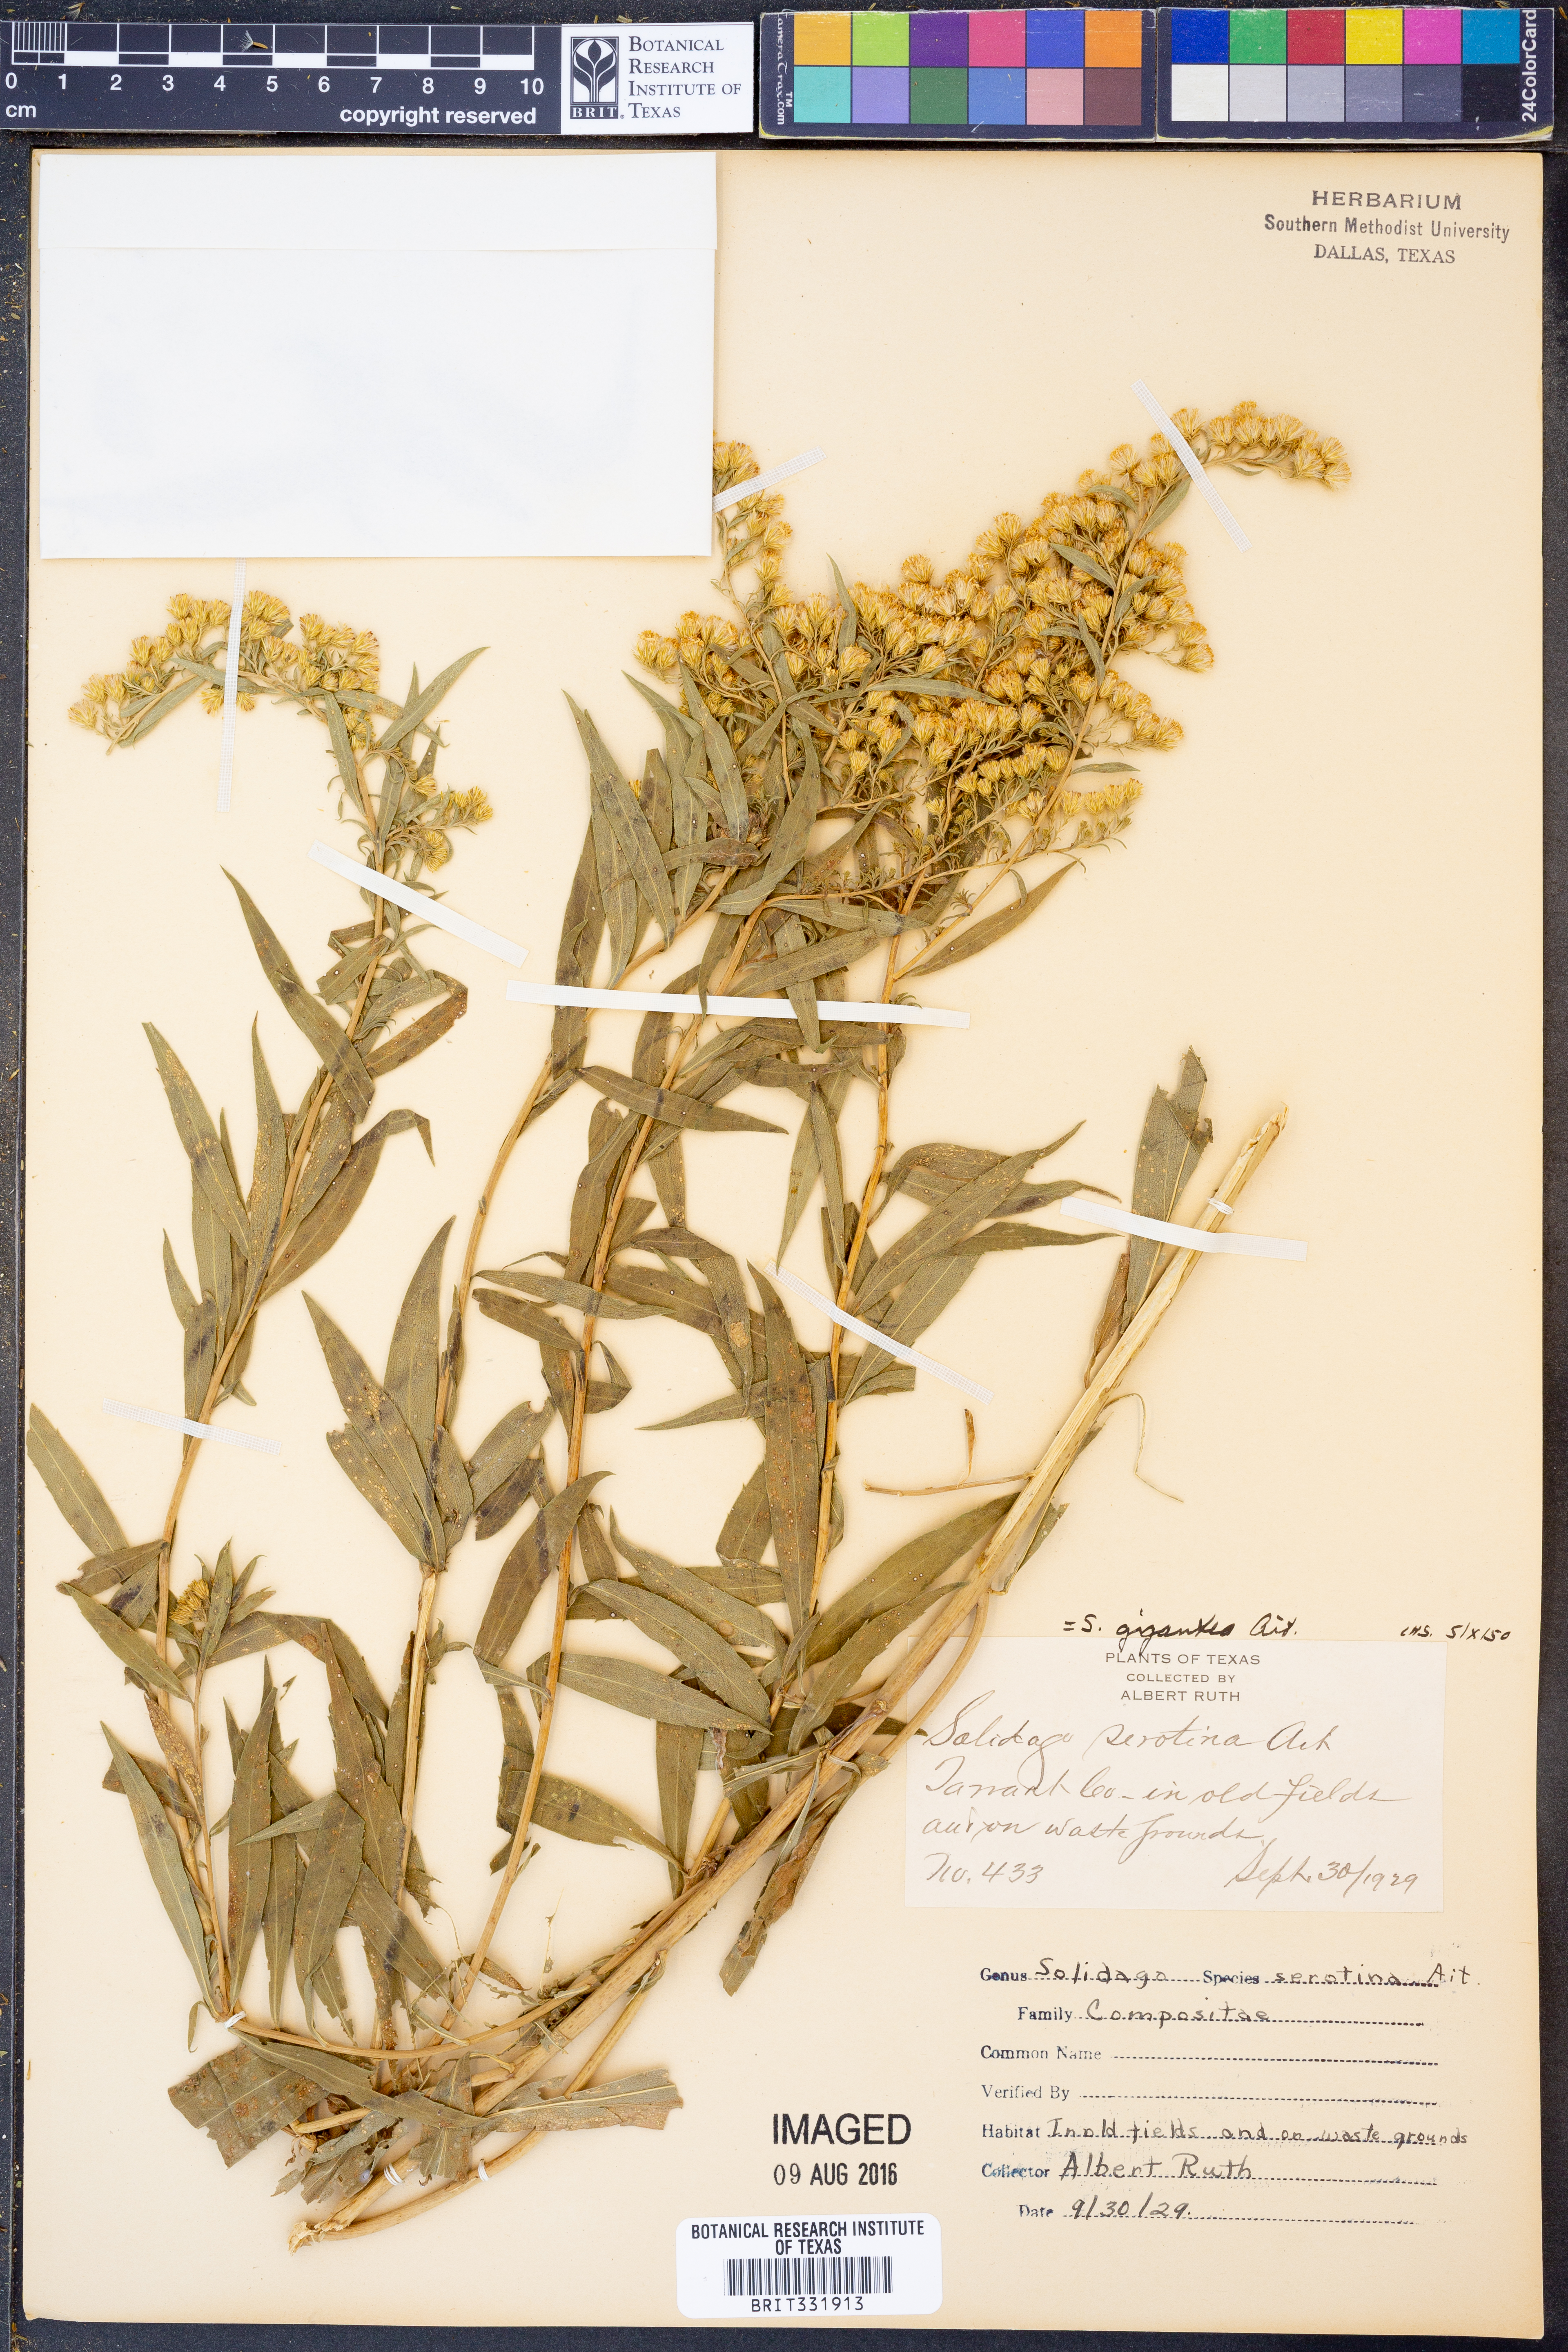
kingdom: Plantae
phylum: Tracheophyta
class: Magnoliopsida
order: Asterales
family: Asteraceae
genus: Solidago
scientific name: Solidago gigantea
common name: Giant goldenrod
